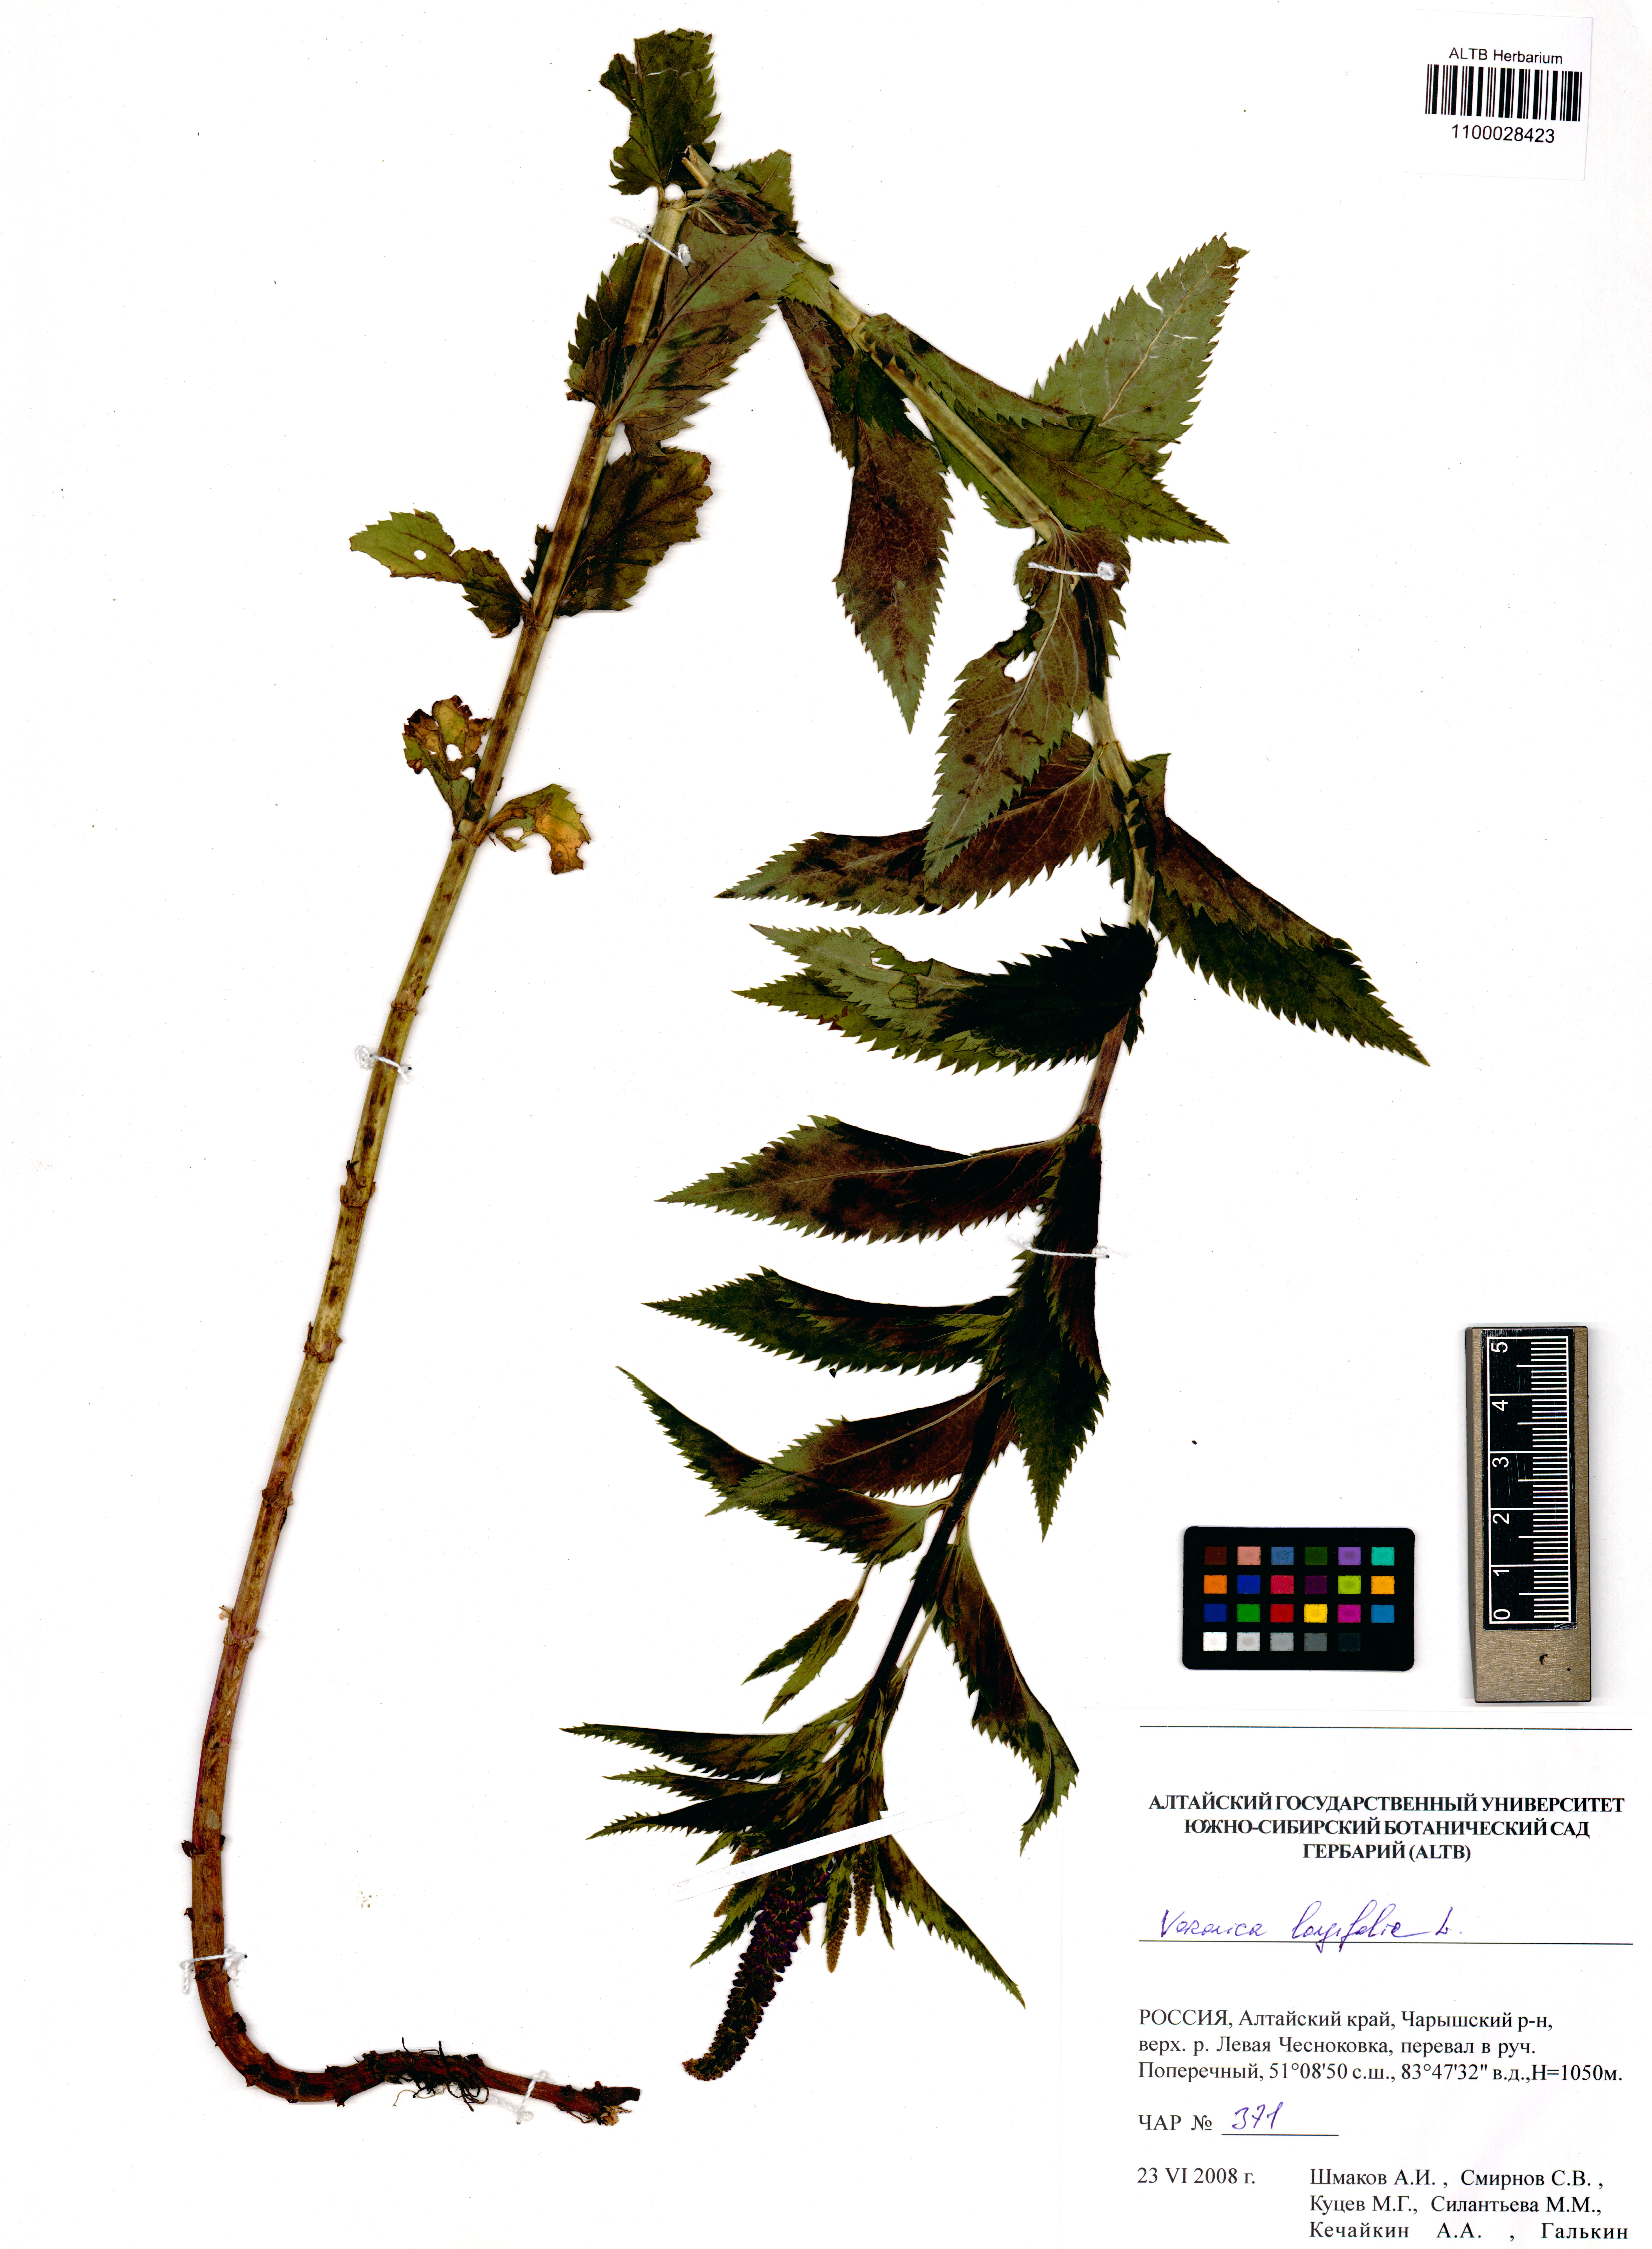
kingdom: Plantae
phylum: Tracheophyta
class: Magnoliopsida
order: Lamiales
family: Plantaginaceae
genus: Veronica
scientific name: Veronica longifolia
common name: Garden speedwell
